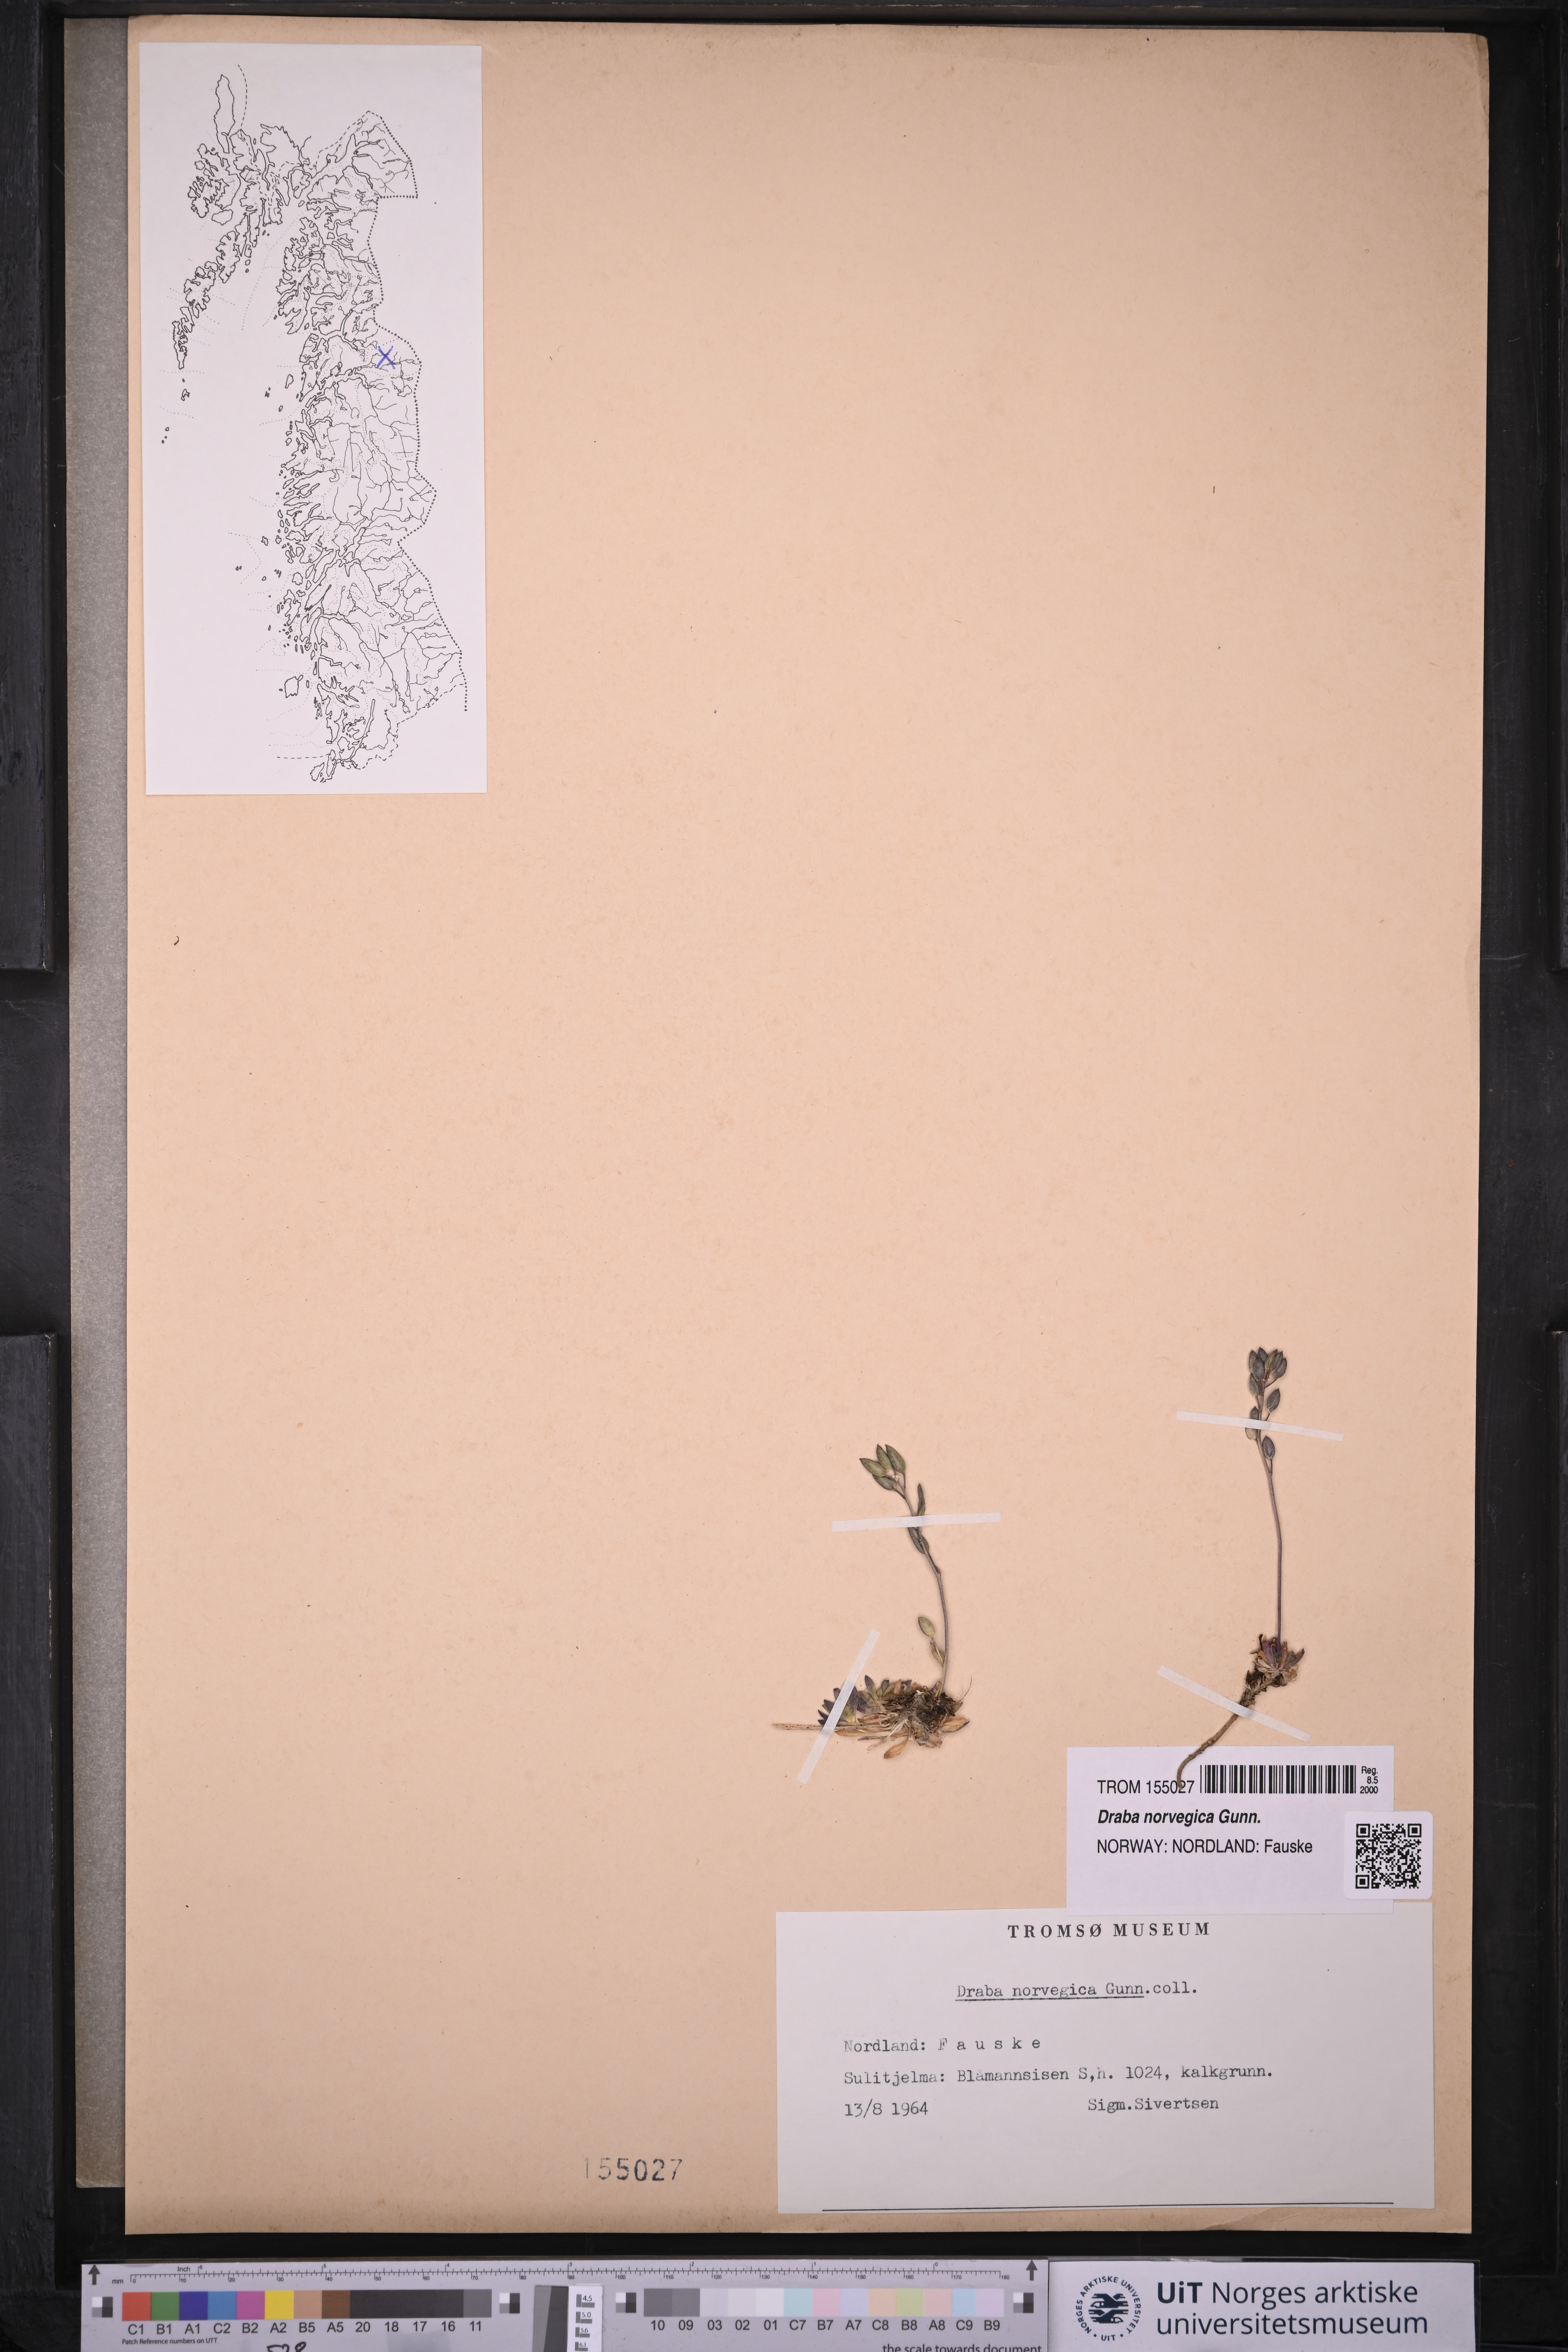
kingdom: Plantae
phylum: Tracheophyta
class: Magnoliopsida
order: Brassicales
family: Brassicaceae
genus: Draba
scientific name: Draba norvegica
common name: Rock whitlowgrass
